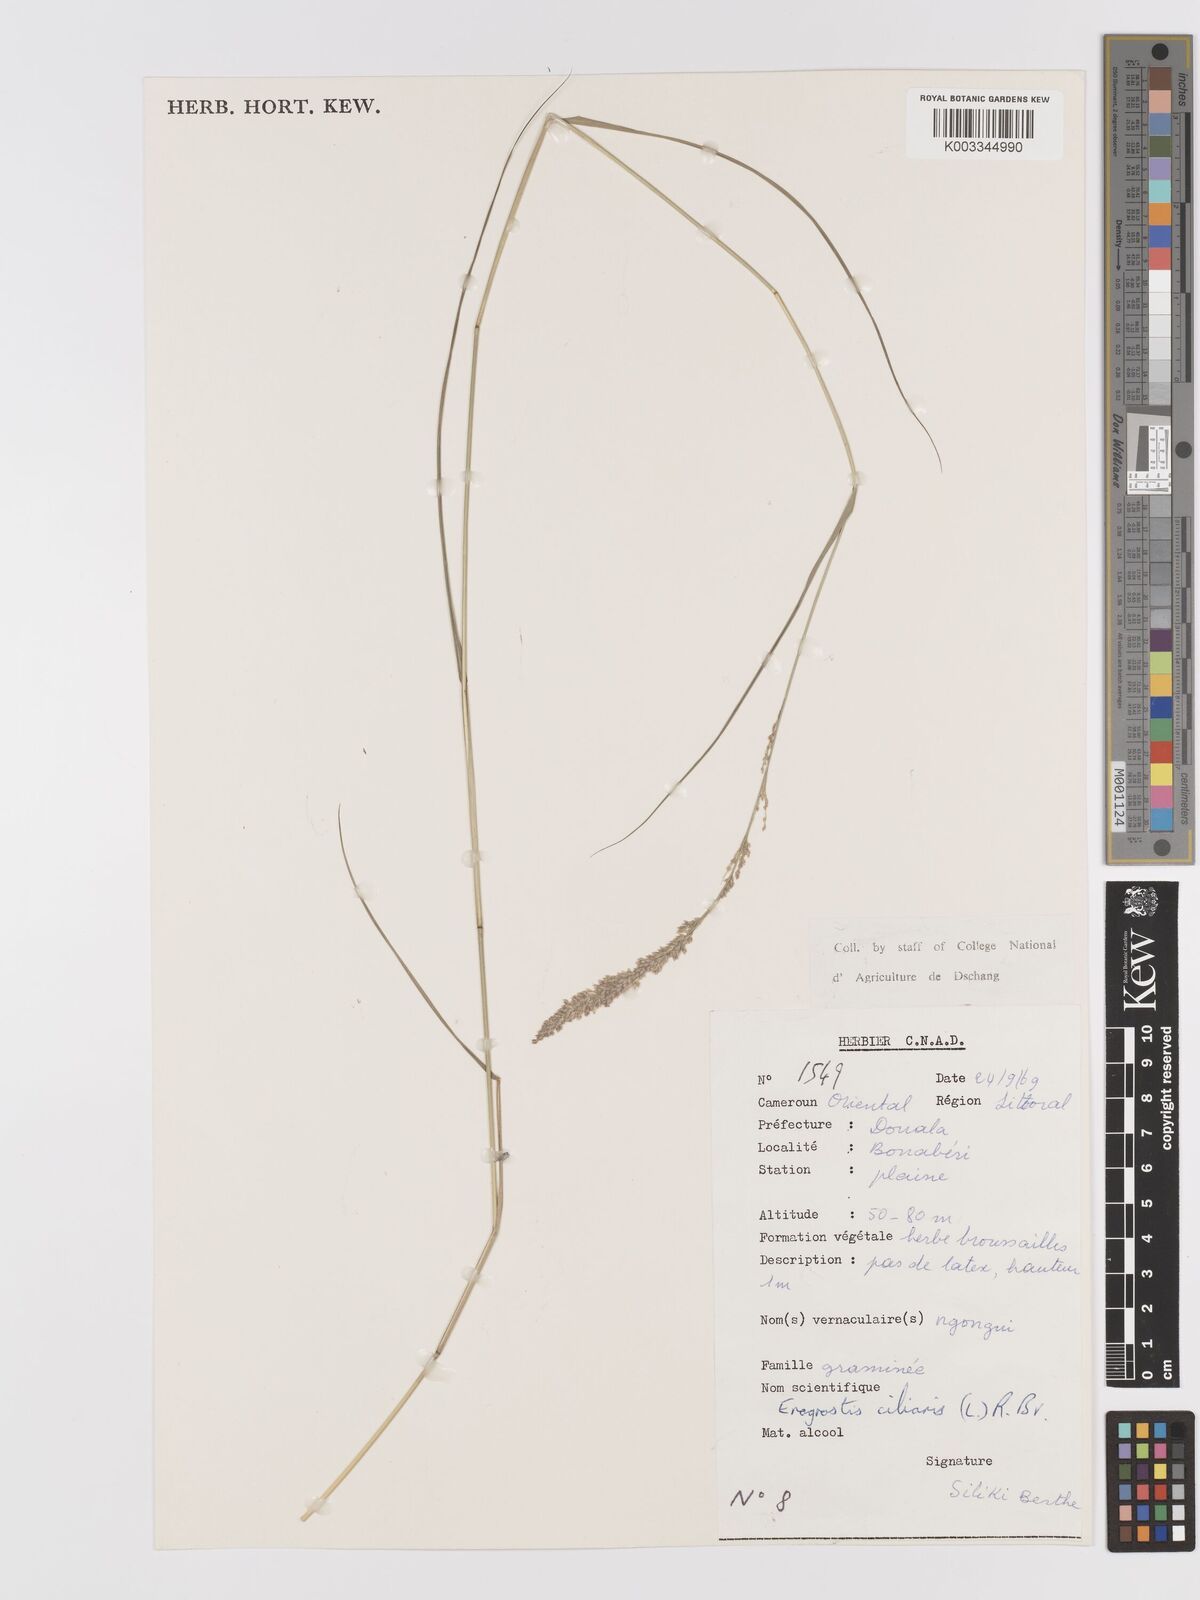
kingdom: Plantae
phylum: Tracheophyta
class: Liliopsida
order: Poales
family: Poaceae
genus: Eragrostis
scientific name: Eragrostis ciliaris
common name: Gophertail lovegrass
